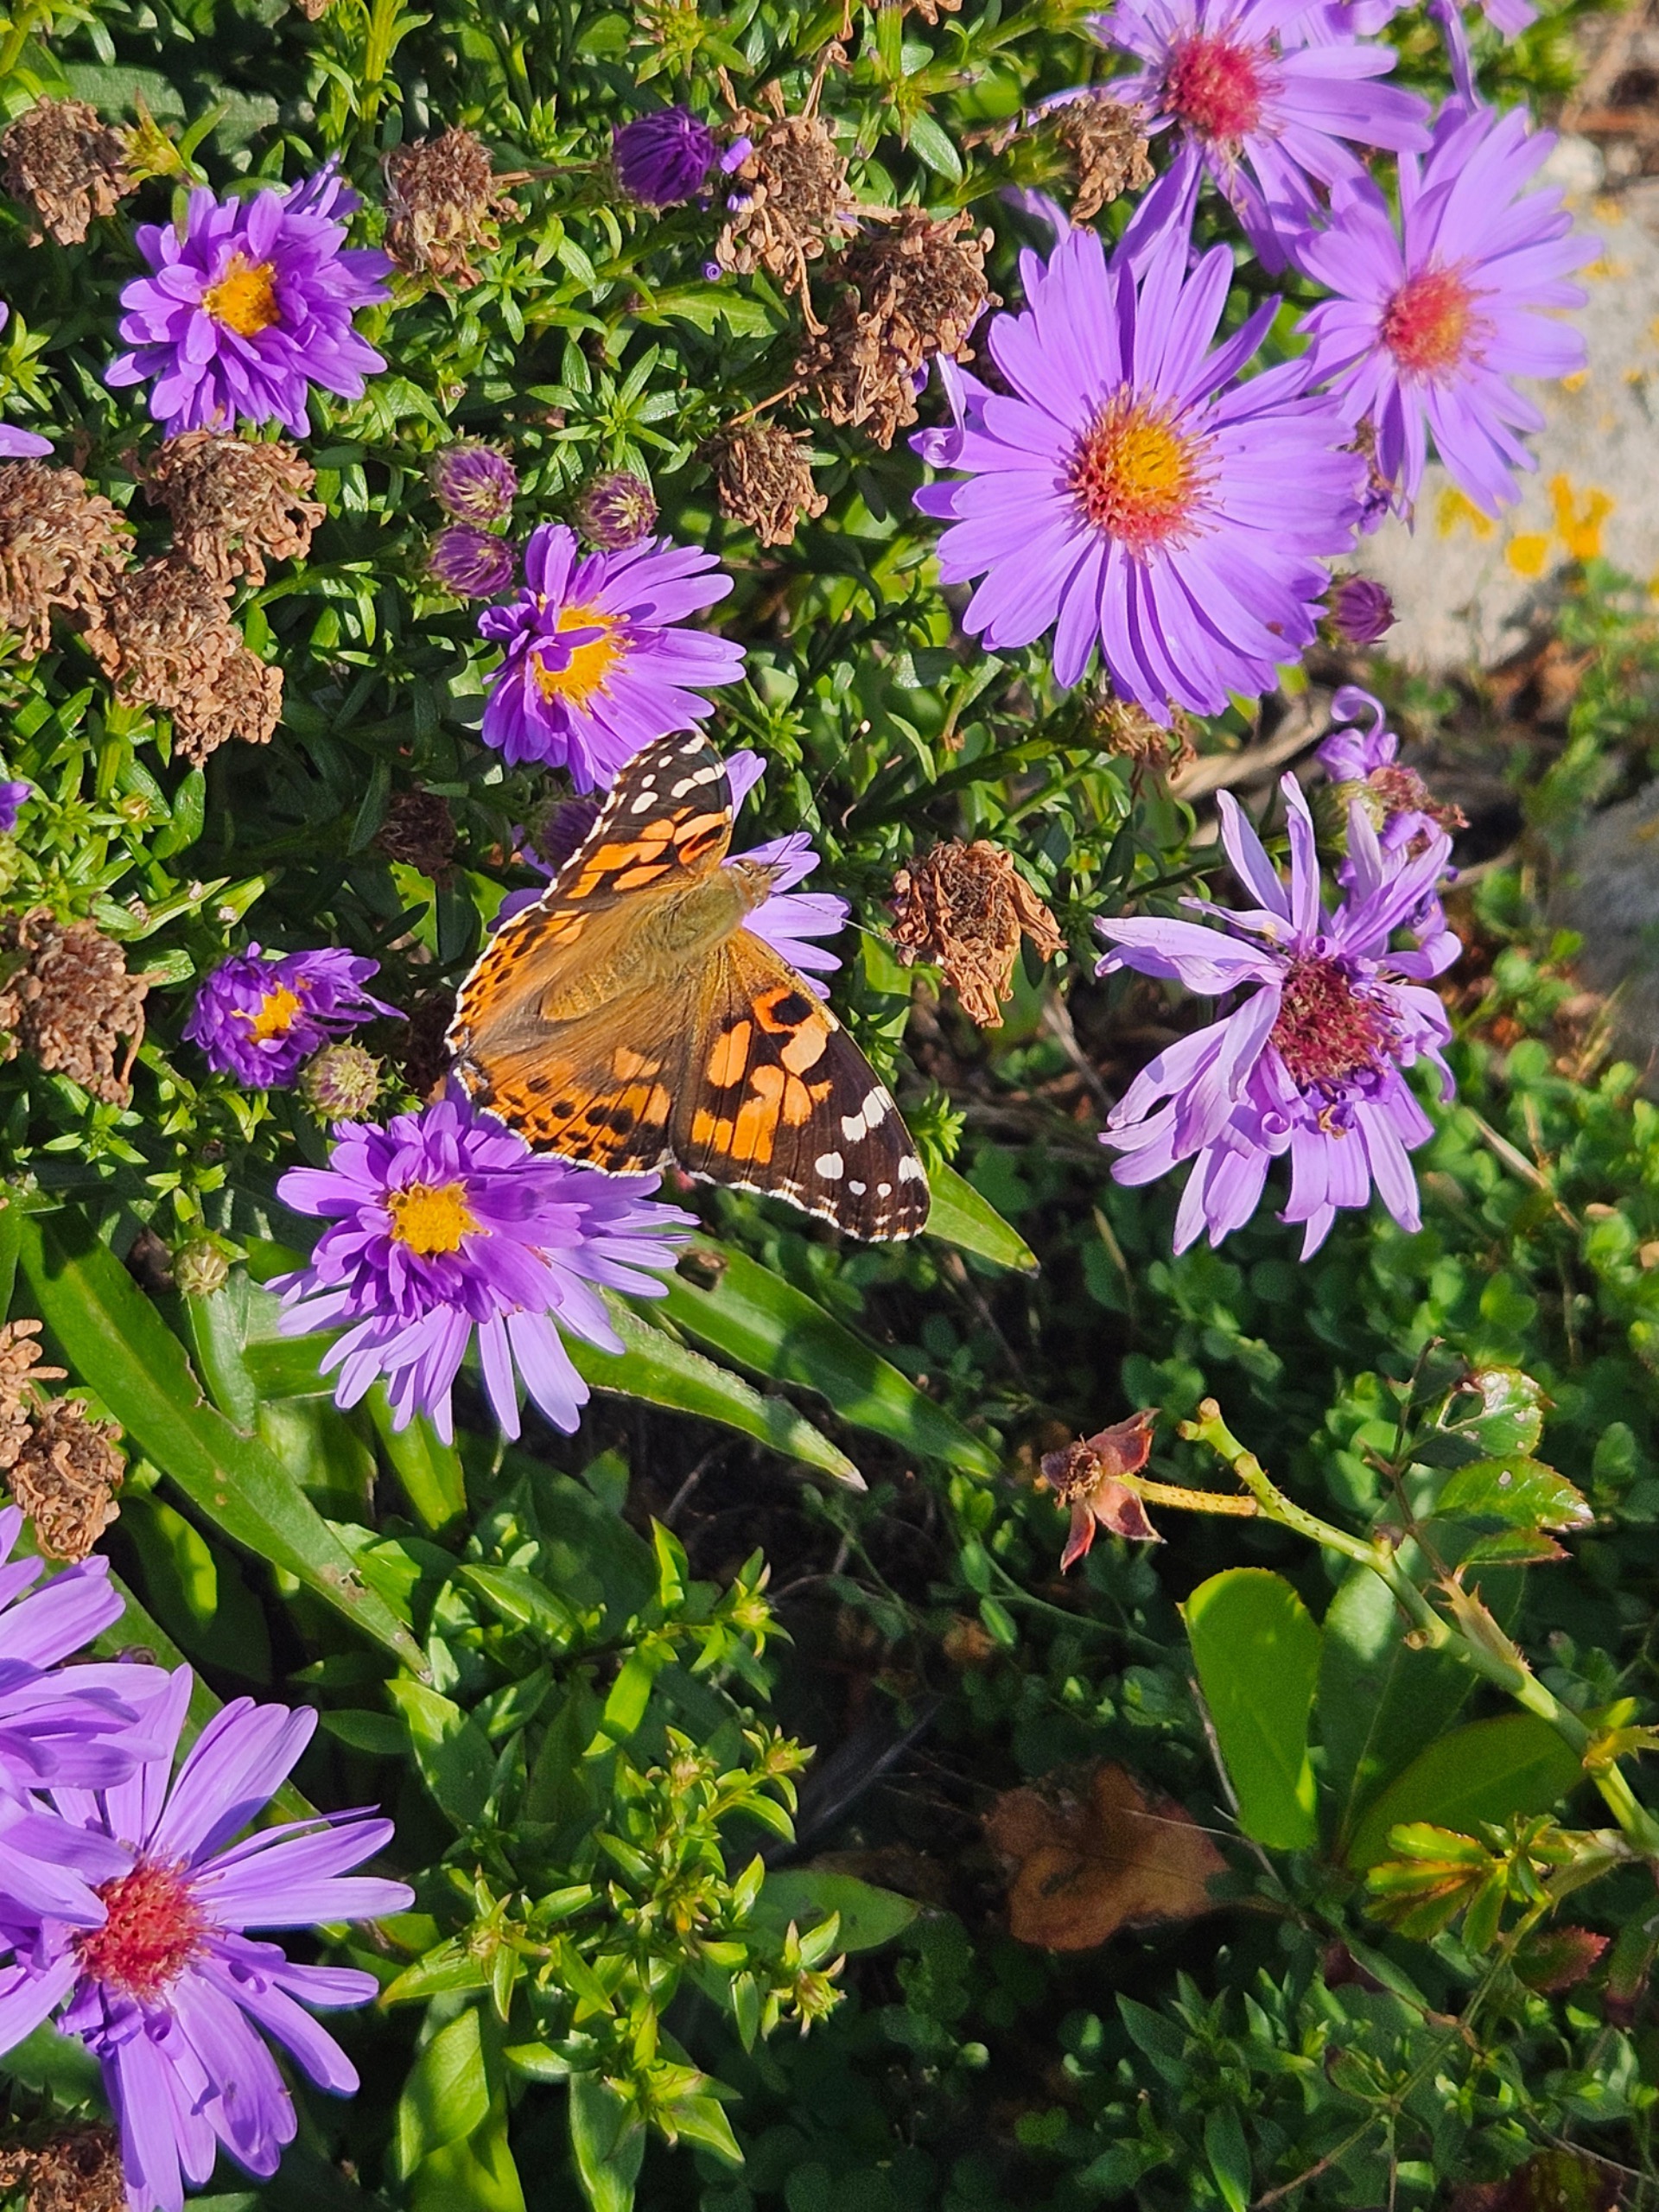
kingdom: Animalia
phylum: Arthropoda
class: Insecta
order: Lepidoptera
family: Nymphalidae
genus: Vanessa
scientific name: Vanessa cardui
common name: Tidselsommerfugl
